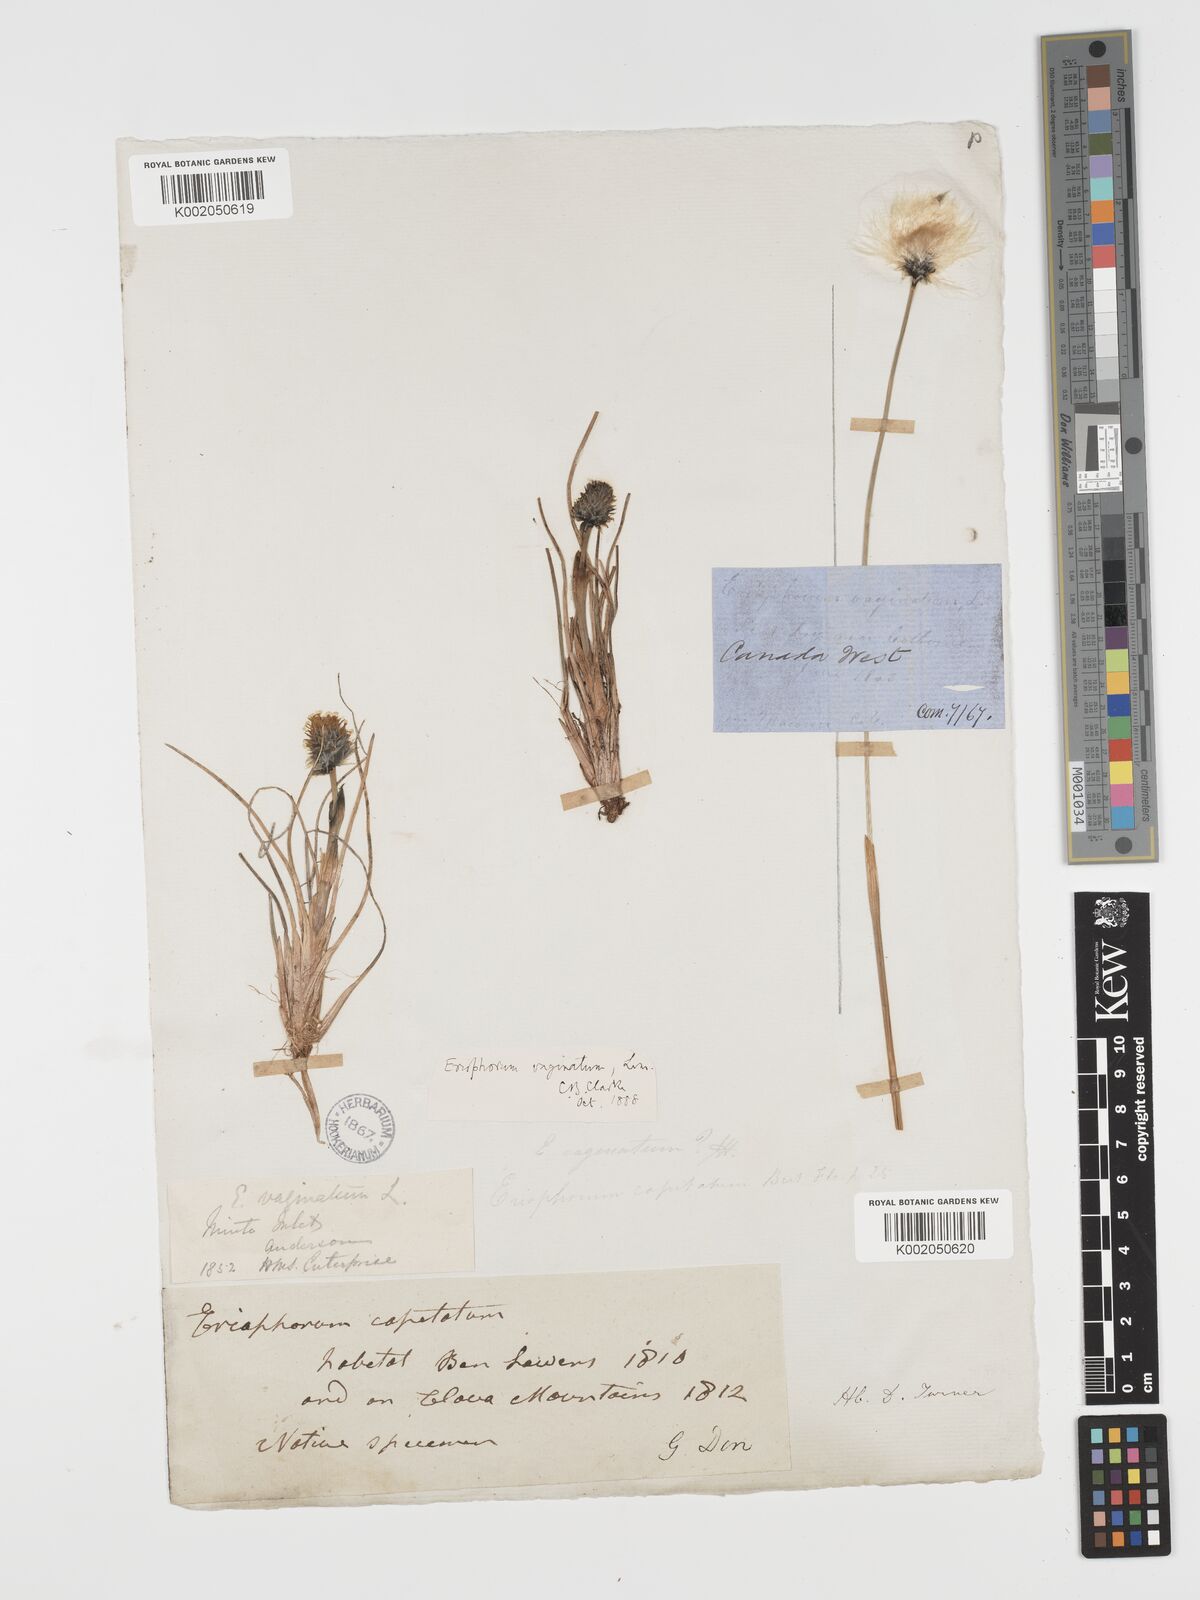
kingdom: Plantae
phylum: Tracheophyta
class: Liliopsida
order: Poales
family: Cyperaceae
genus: Eriophorum
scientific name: Eriophorum vaginatum
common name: Hare's-tail cottongrass
